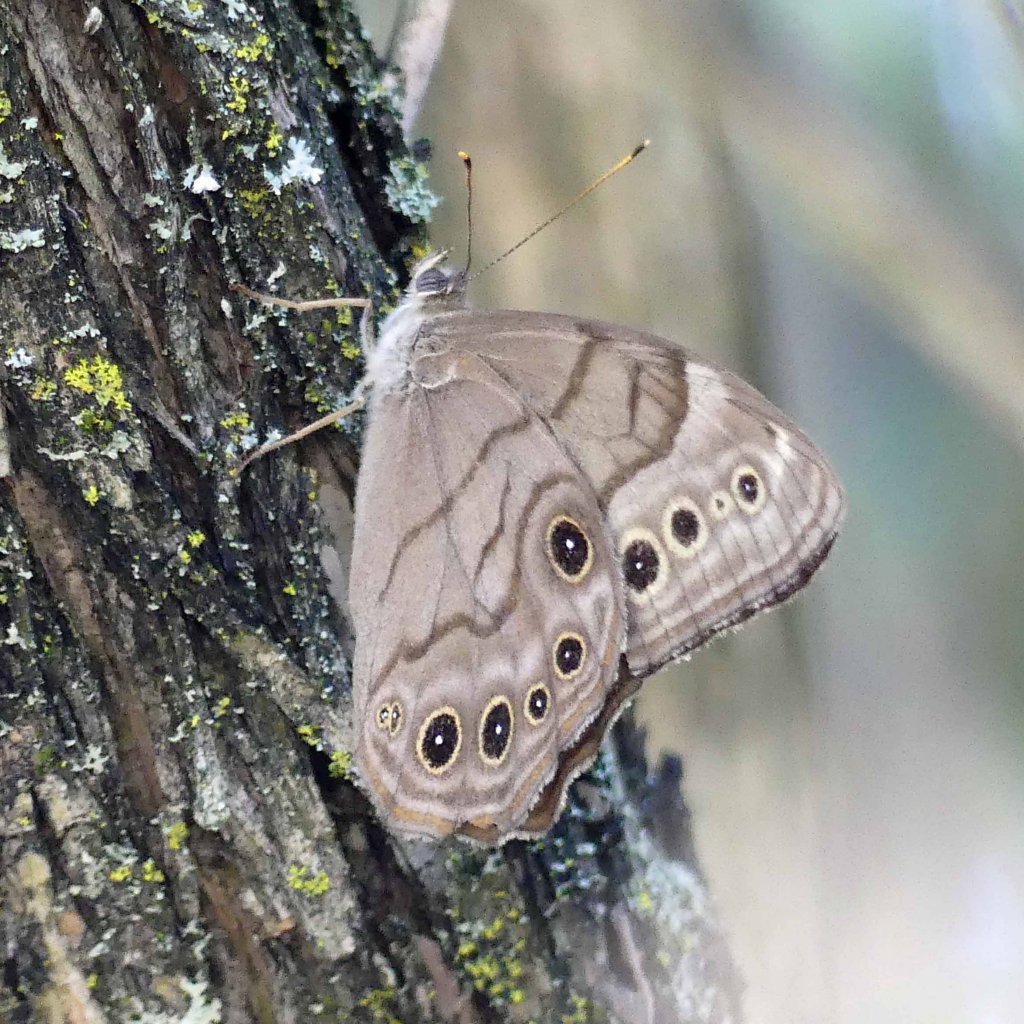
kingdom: Animalia
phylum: Arthropoda
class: Insecta
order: Lepidoptera
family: Nymphalidae
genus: Lethe
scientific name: Lethe anthedon
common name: Northern Pearly-Eye
